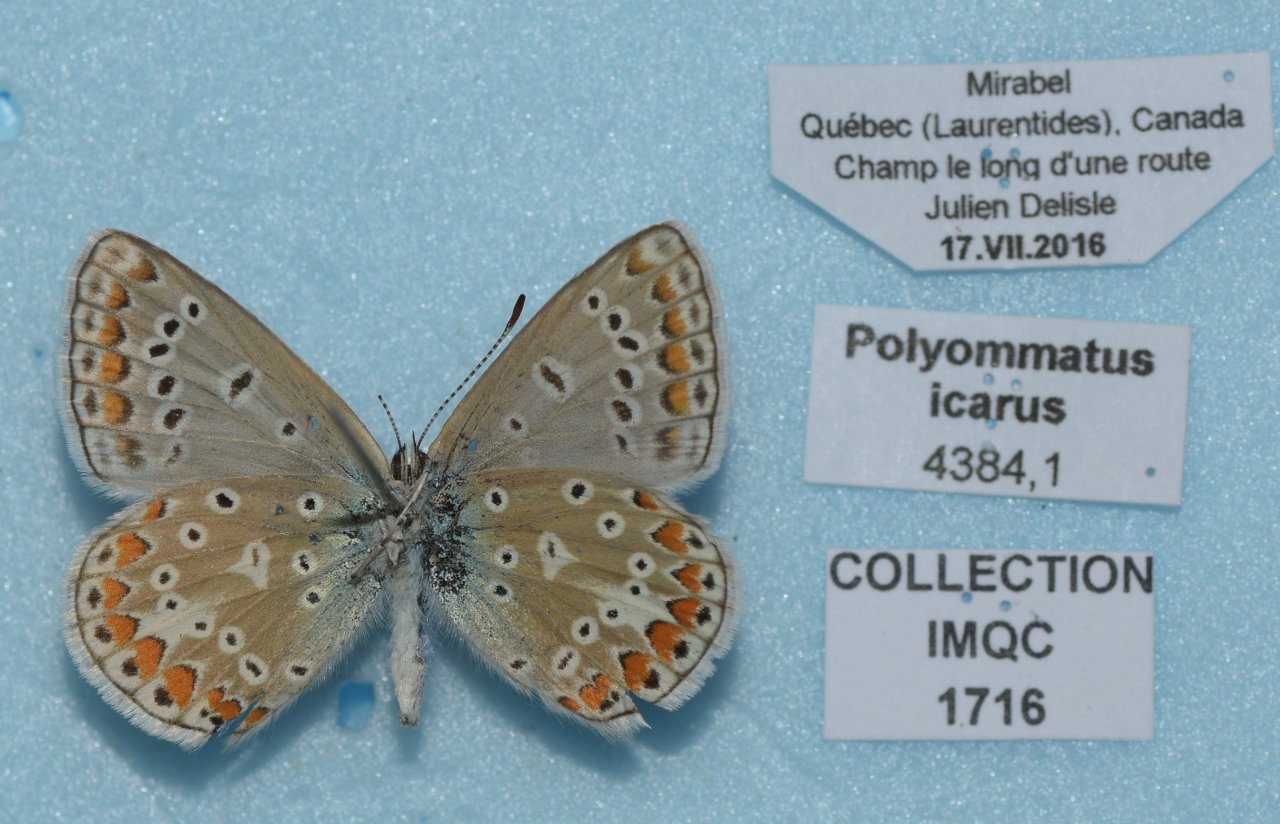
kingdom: Animalia
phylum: Arthropoda
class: Insecta
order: Lepidoptera
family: Lycaenidae
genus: Polyommatus
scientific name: Polyommatus icarus
